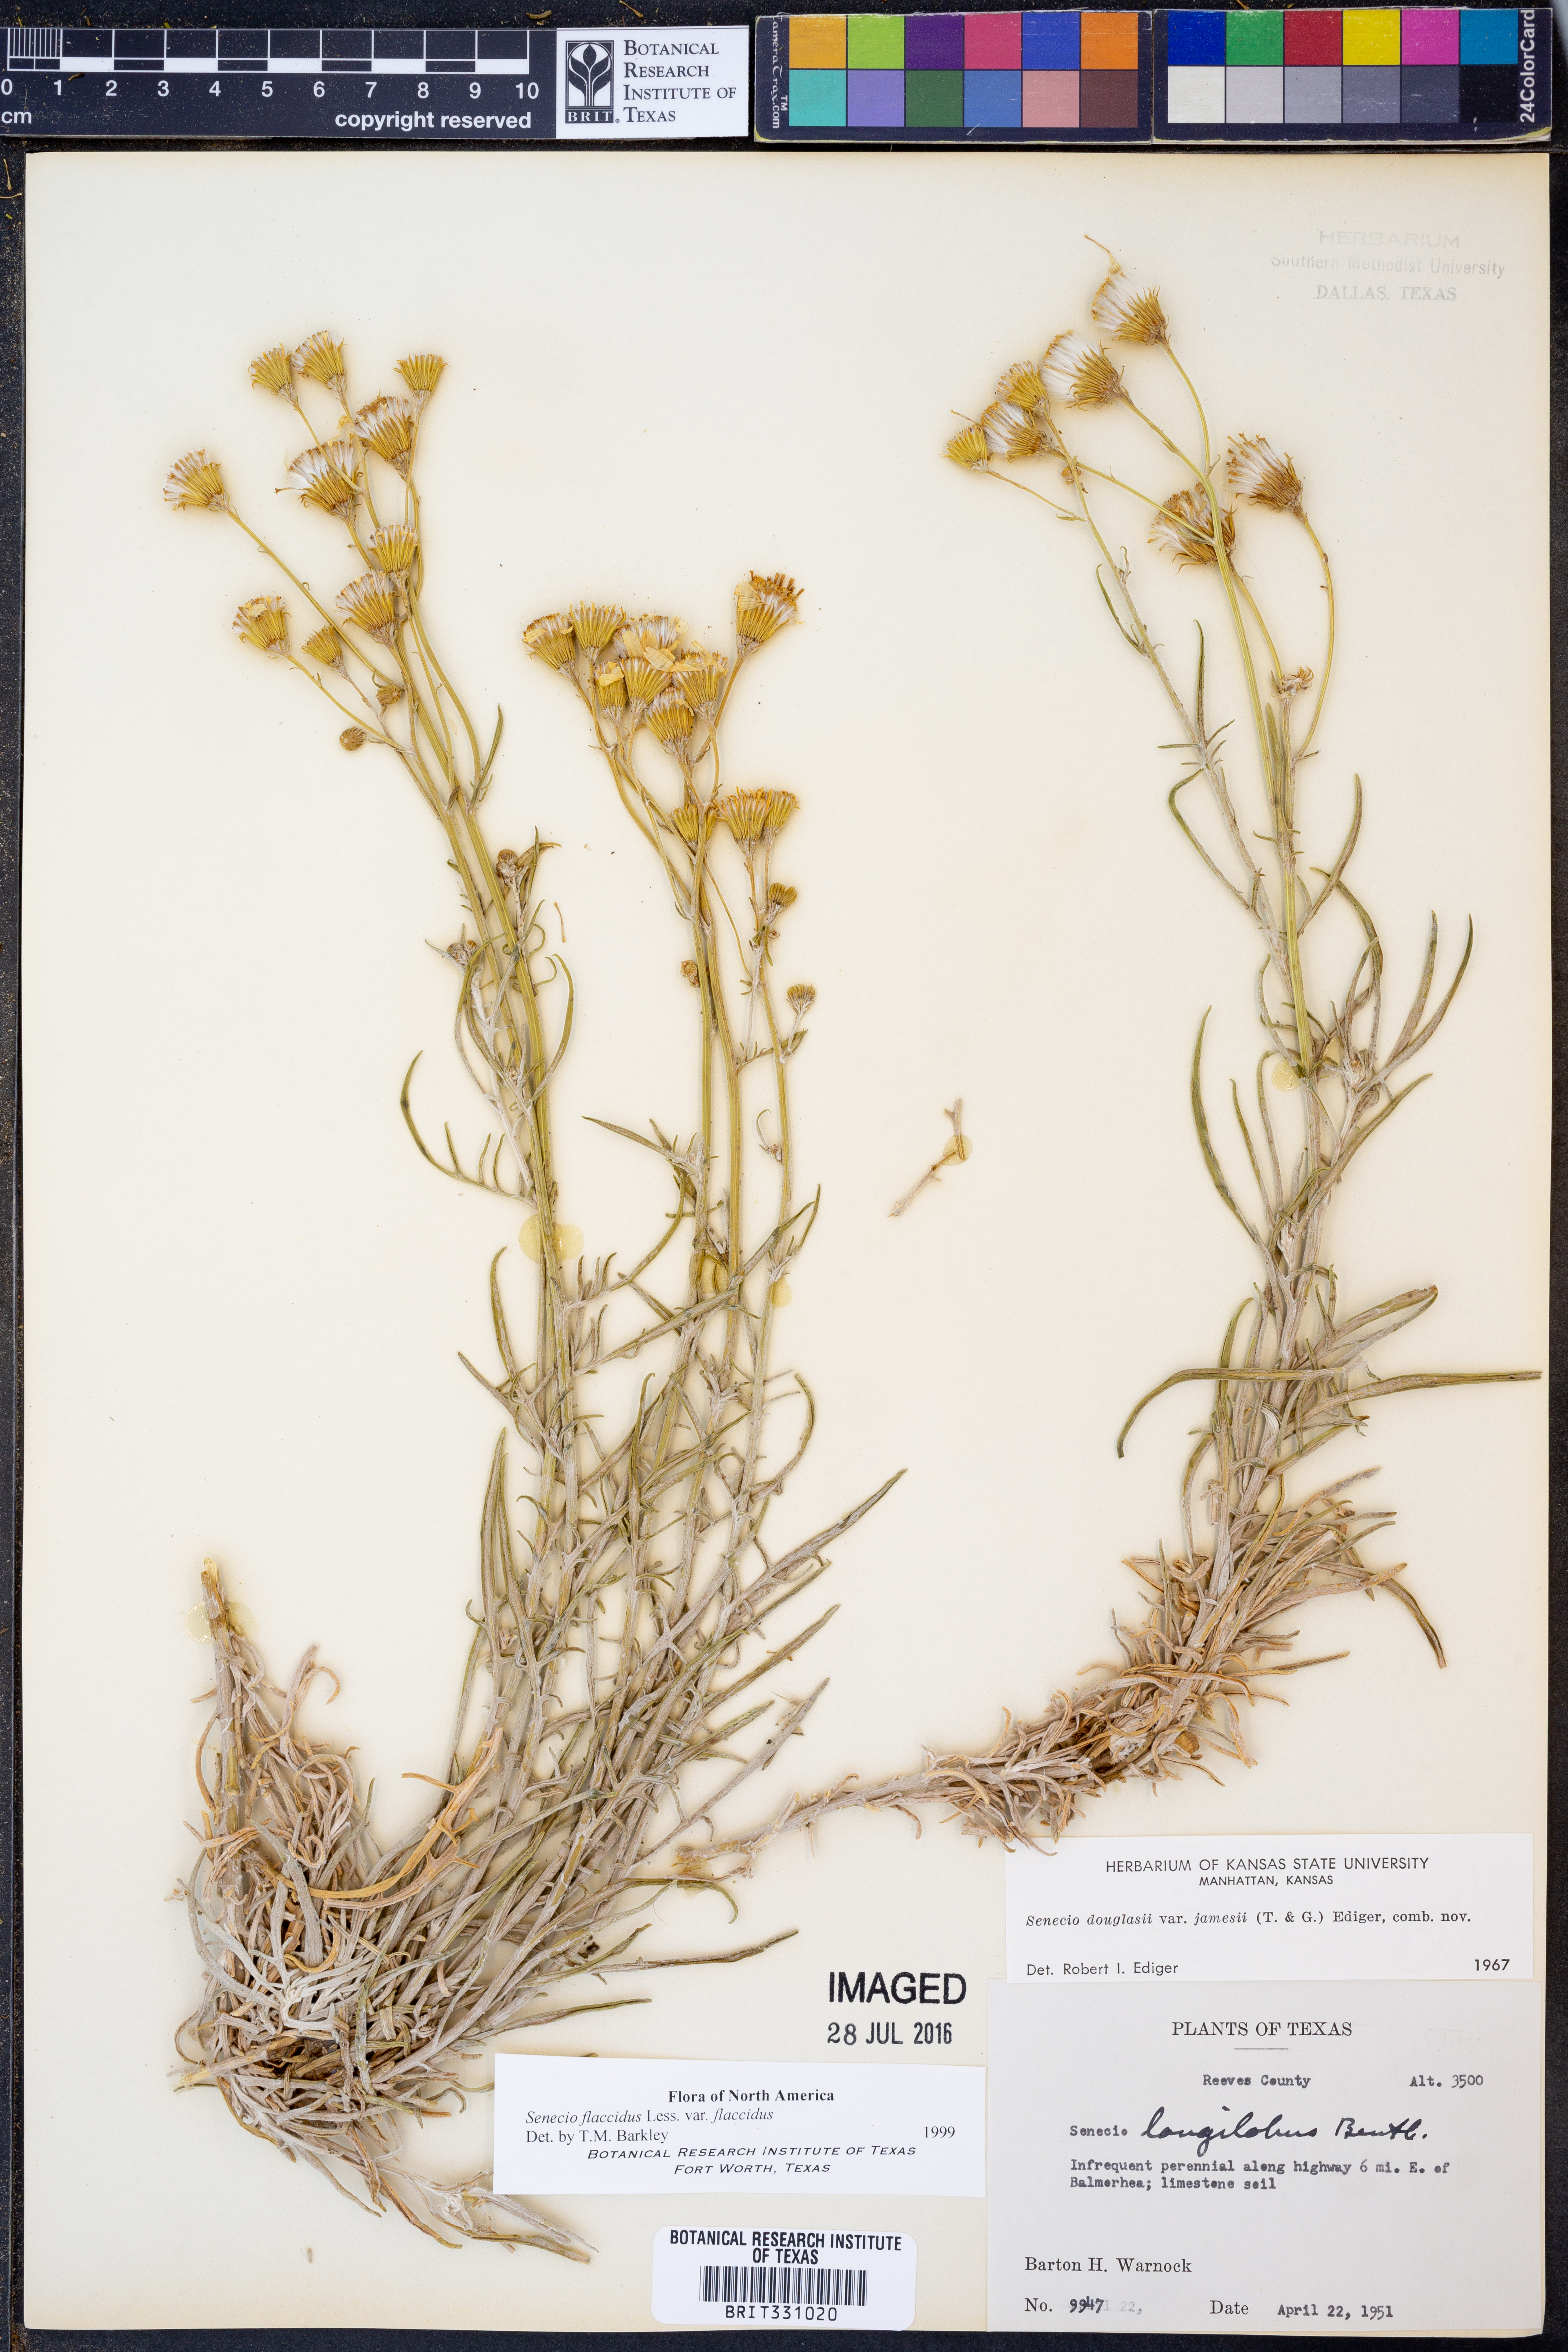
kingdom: Plantae
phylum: Tracheophyta
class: Magnoliopsida
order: Asterales
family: Asteraceae
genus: Senecio
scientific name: Senecio flaccidus
